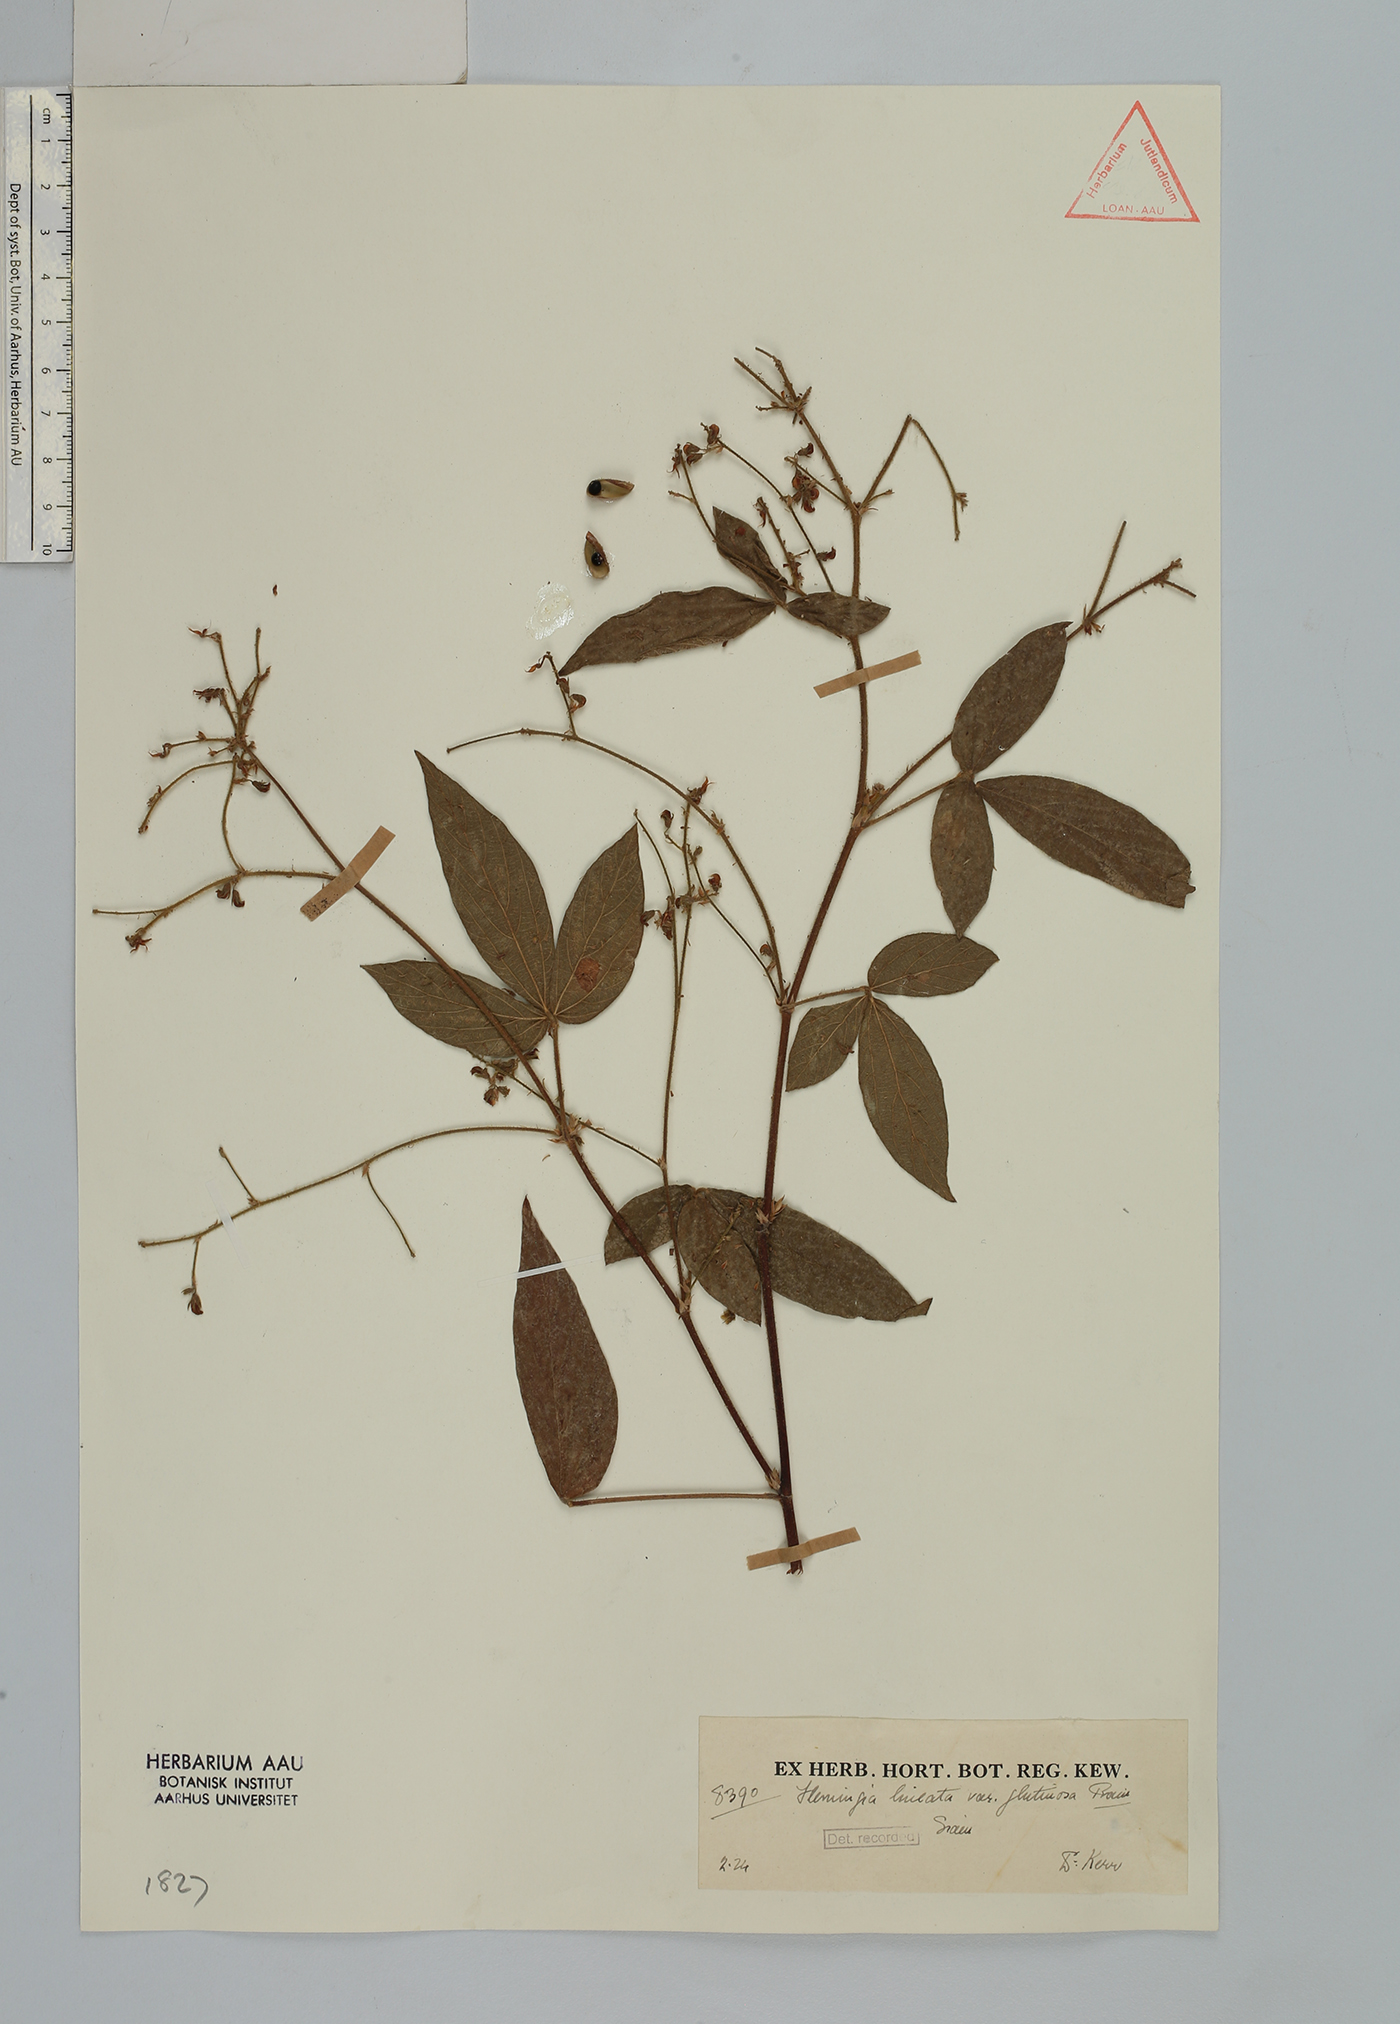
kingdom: Plantae
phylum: Tracheophyta
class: Magnoliopsida
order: Fabales
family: Fabaceae
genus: Flemingia
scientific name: Flemingia lineata
